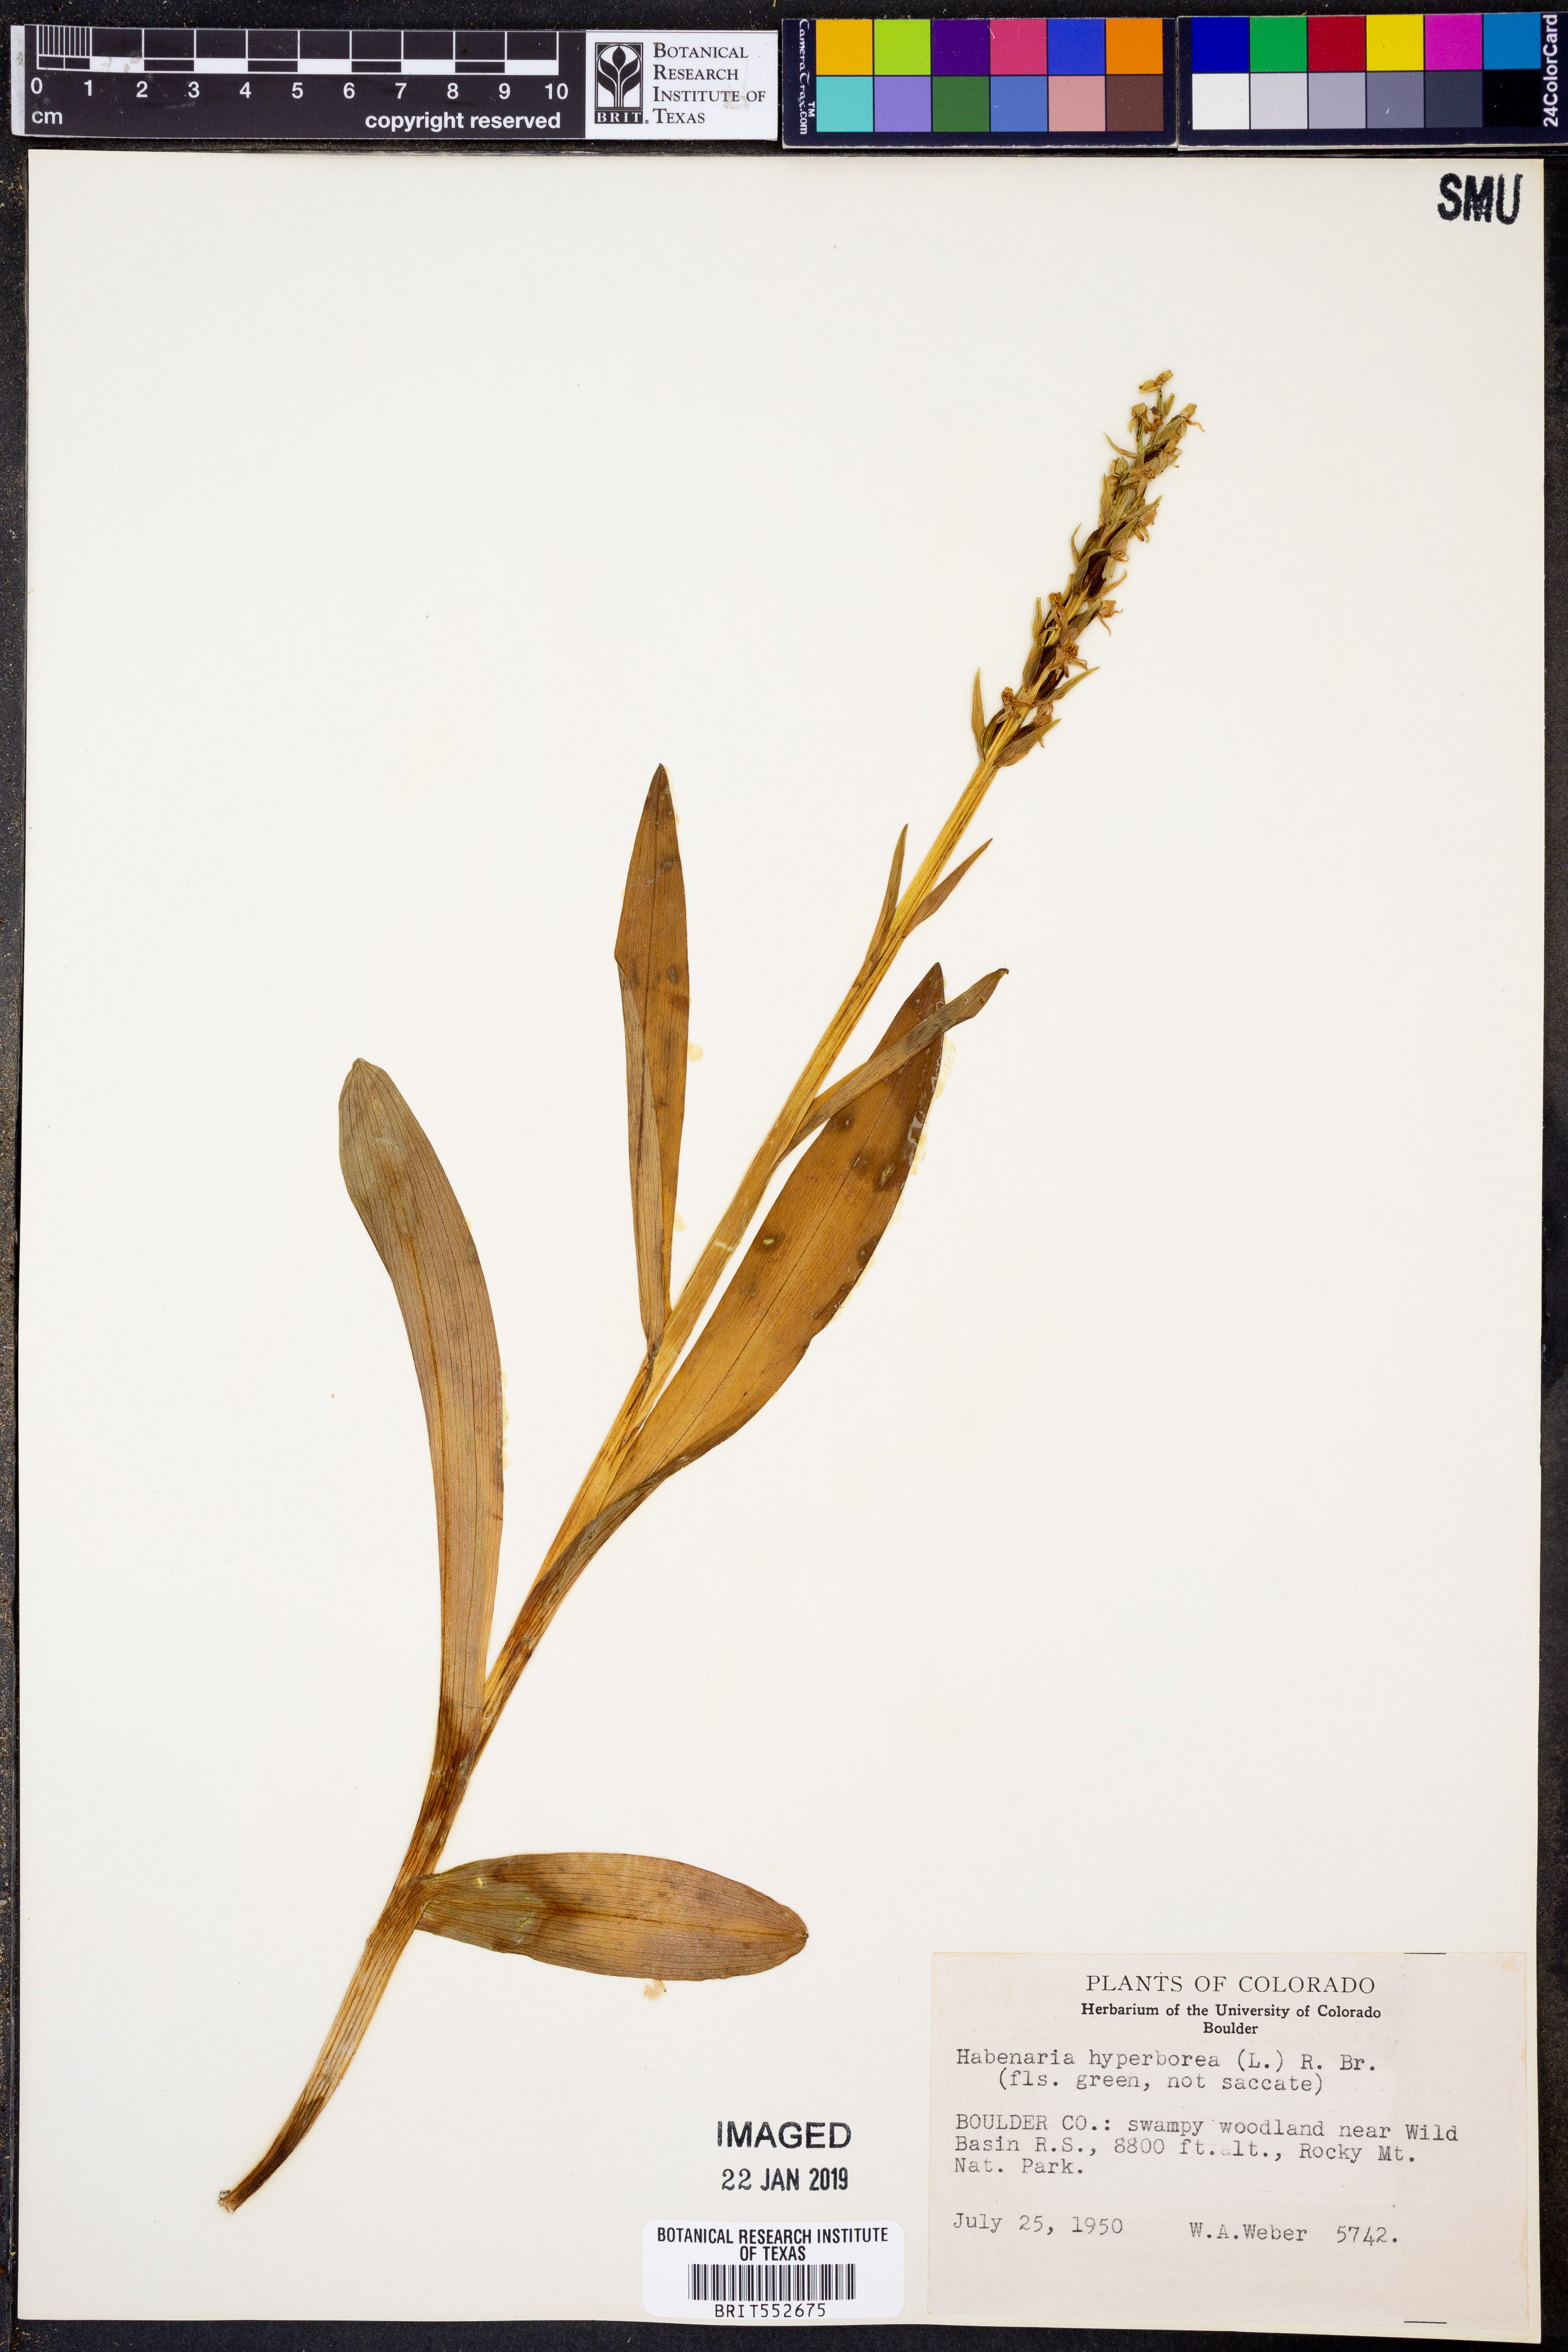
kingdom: Plantae
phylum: Tracheophyta
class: Liliopsida
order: Asparagales
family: Orchidaceae
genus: Platanthera
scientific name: Platanthera hyperborea
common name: Northern green orchid
